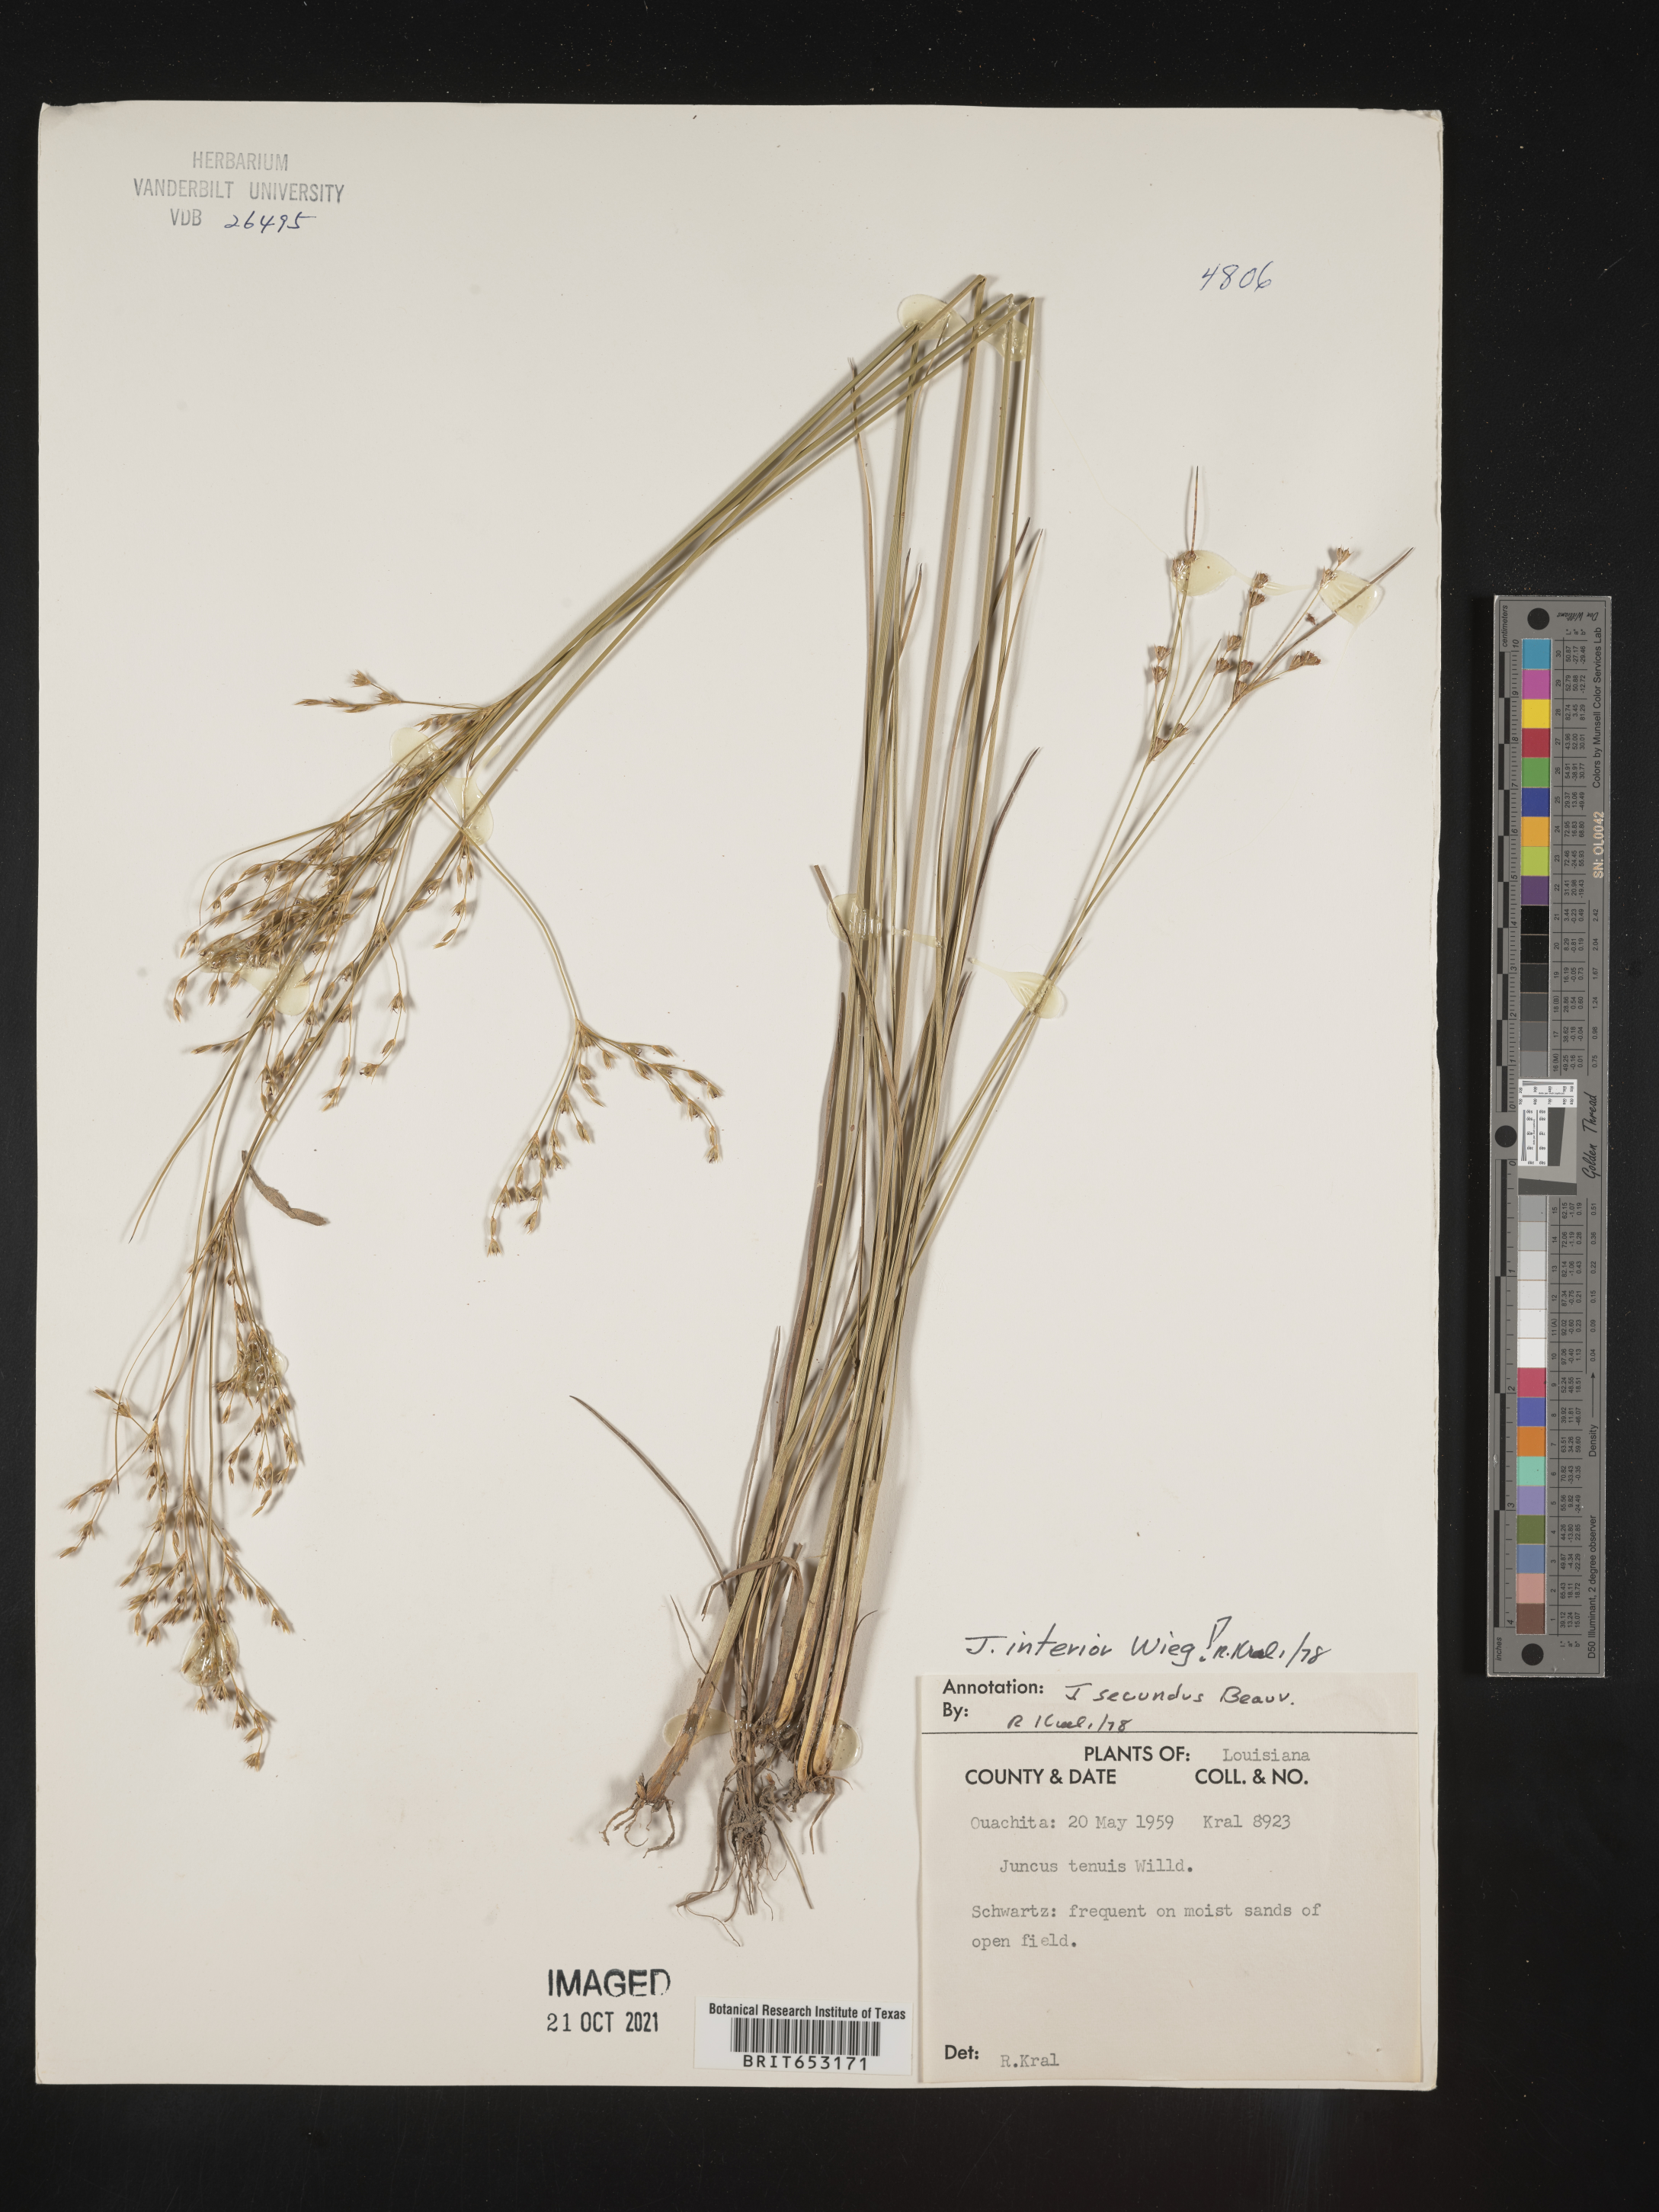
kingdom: Plantae
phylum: Tracheophyta
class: Liliopsida
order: Poales
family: Juncaceae
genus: Juncus
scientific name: Juncus interior
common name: Interior rush
